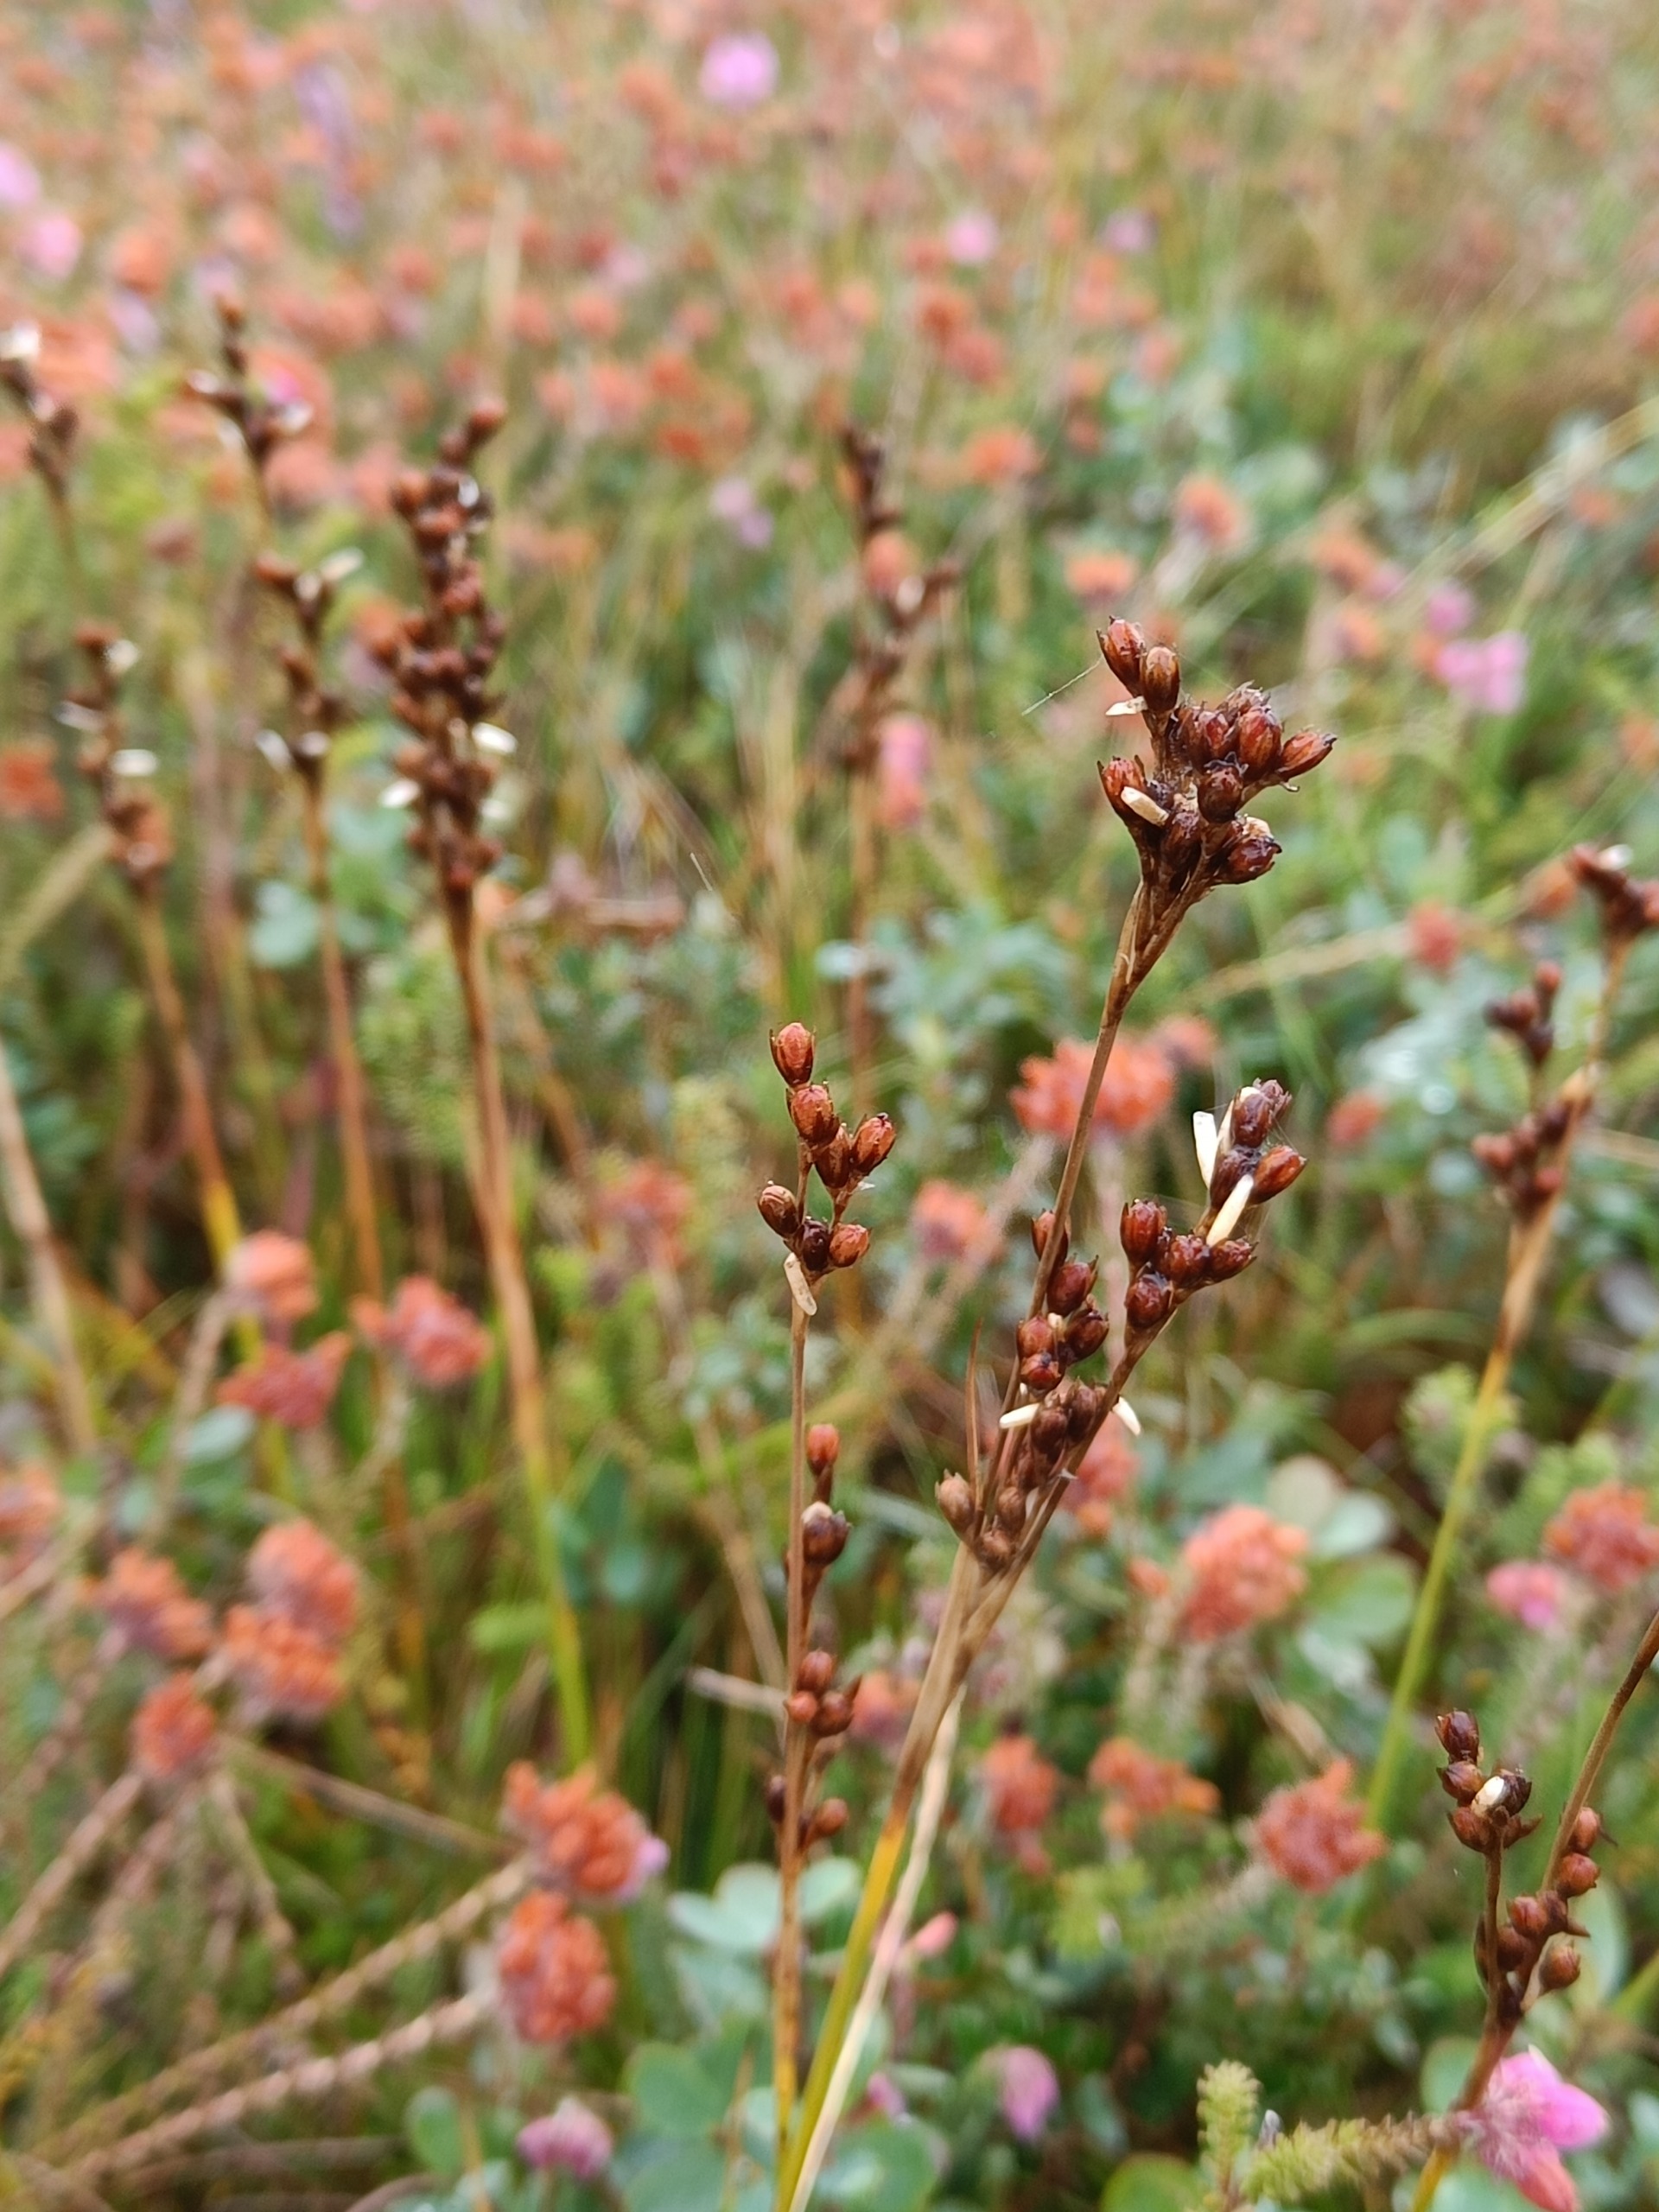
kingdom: Plantae
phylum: Tracheophyta
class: Liliopsida
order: Poales
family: Juncaceae
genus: Juncus
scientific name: Juncus squarrosus
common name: Børste-siv
